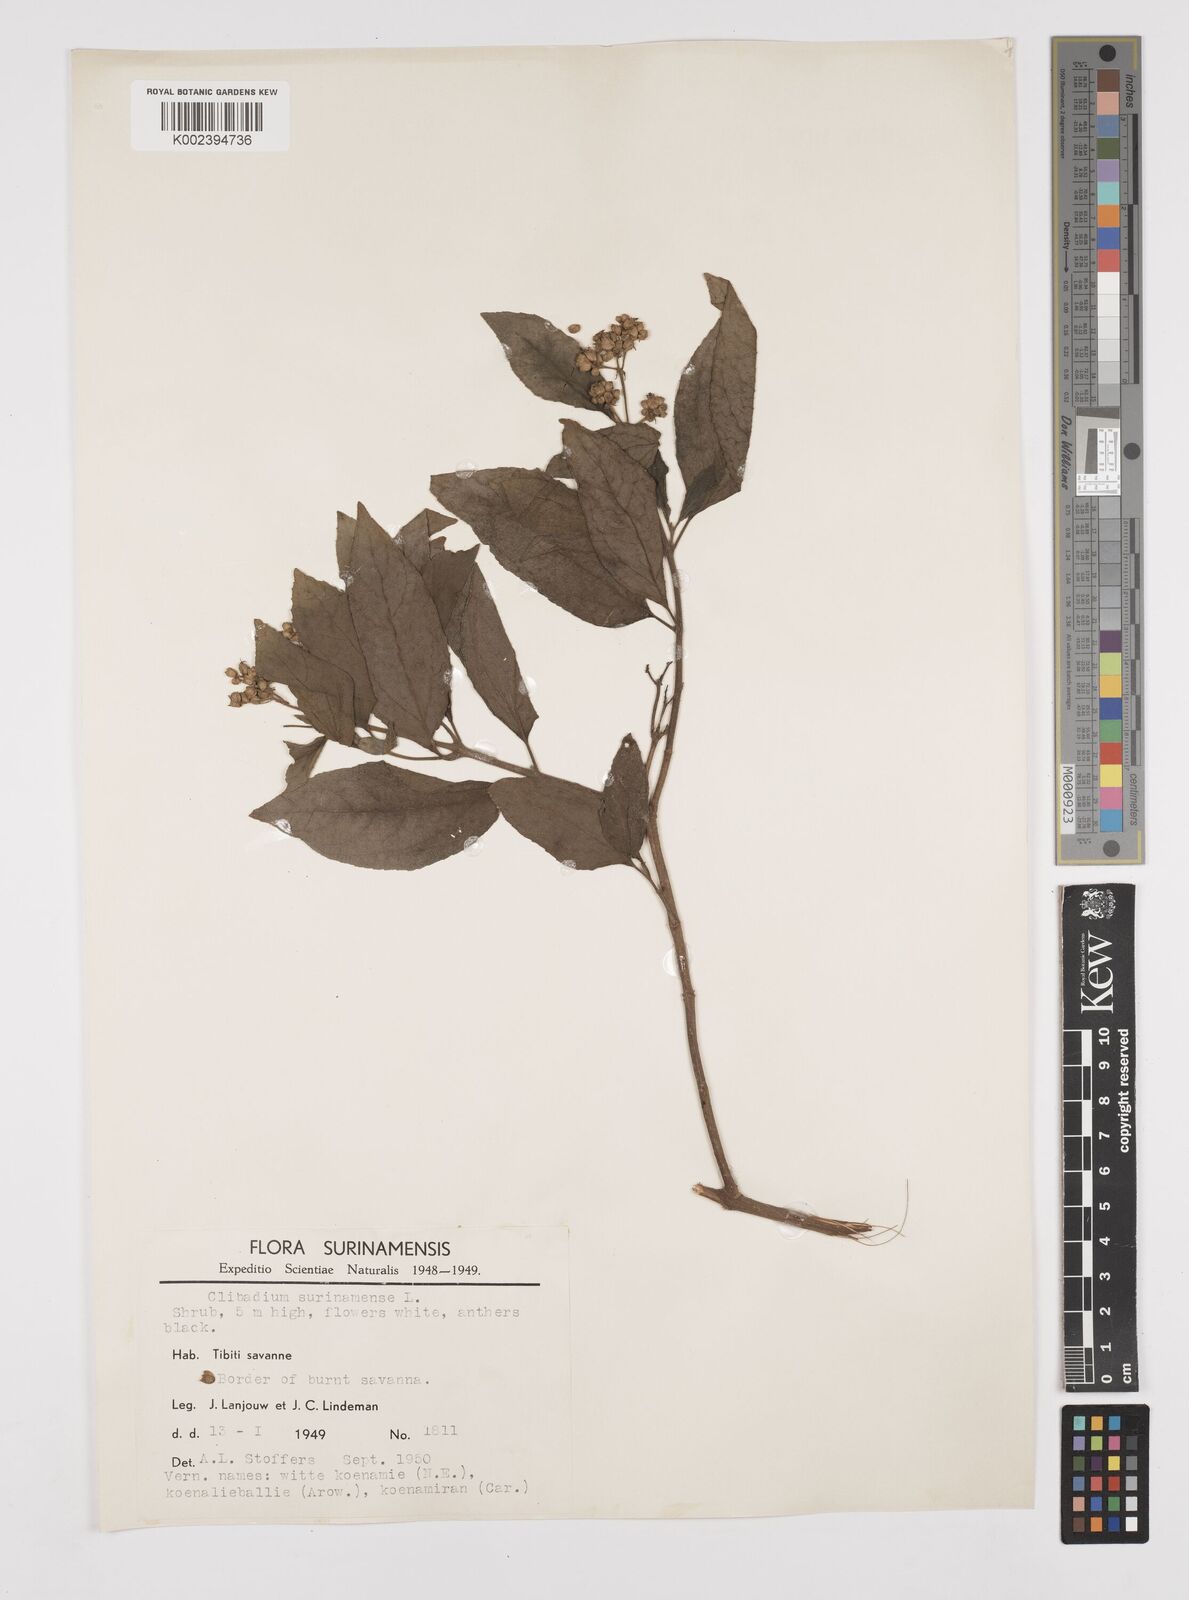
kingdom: Plantae
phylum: Tracheophyta
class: Magnoliopsida
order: Asterales
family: Asteraceae
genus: Clibadium
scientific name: Clibadium surinamense
